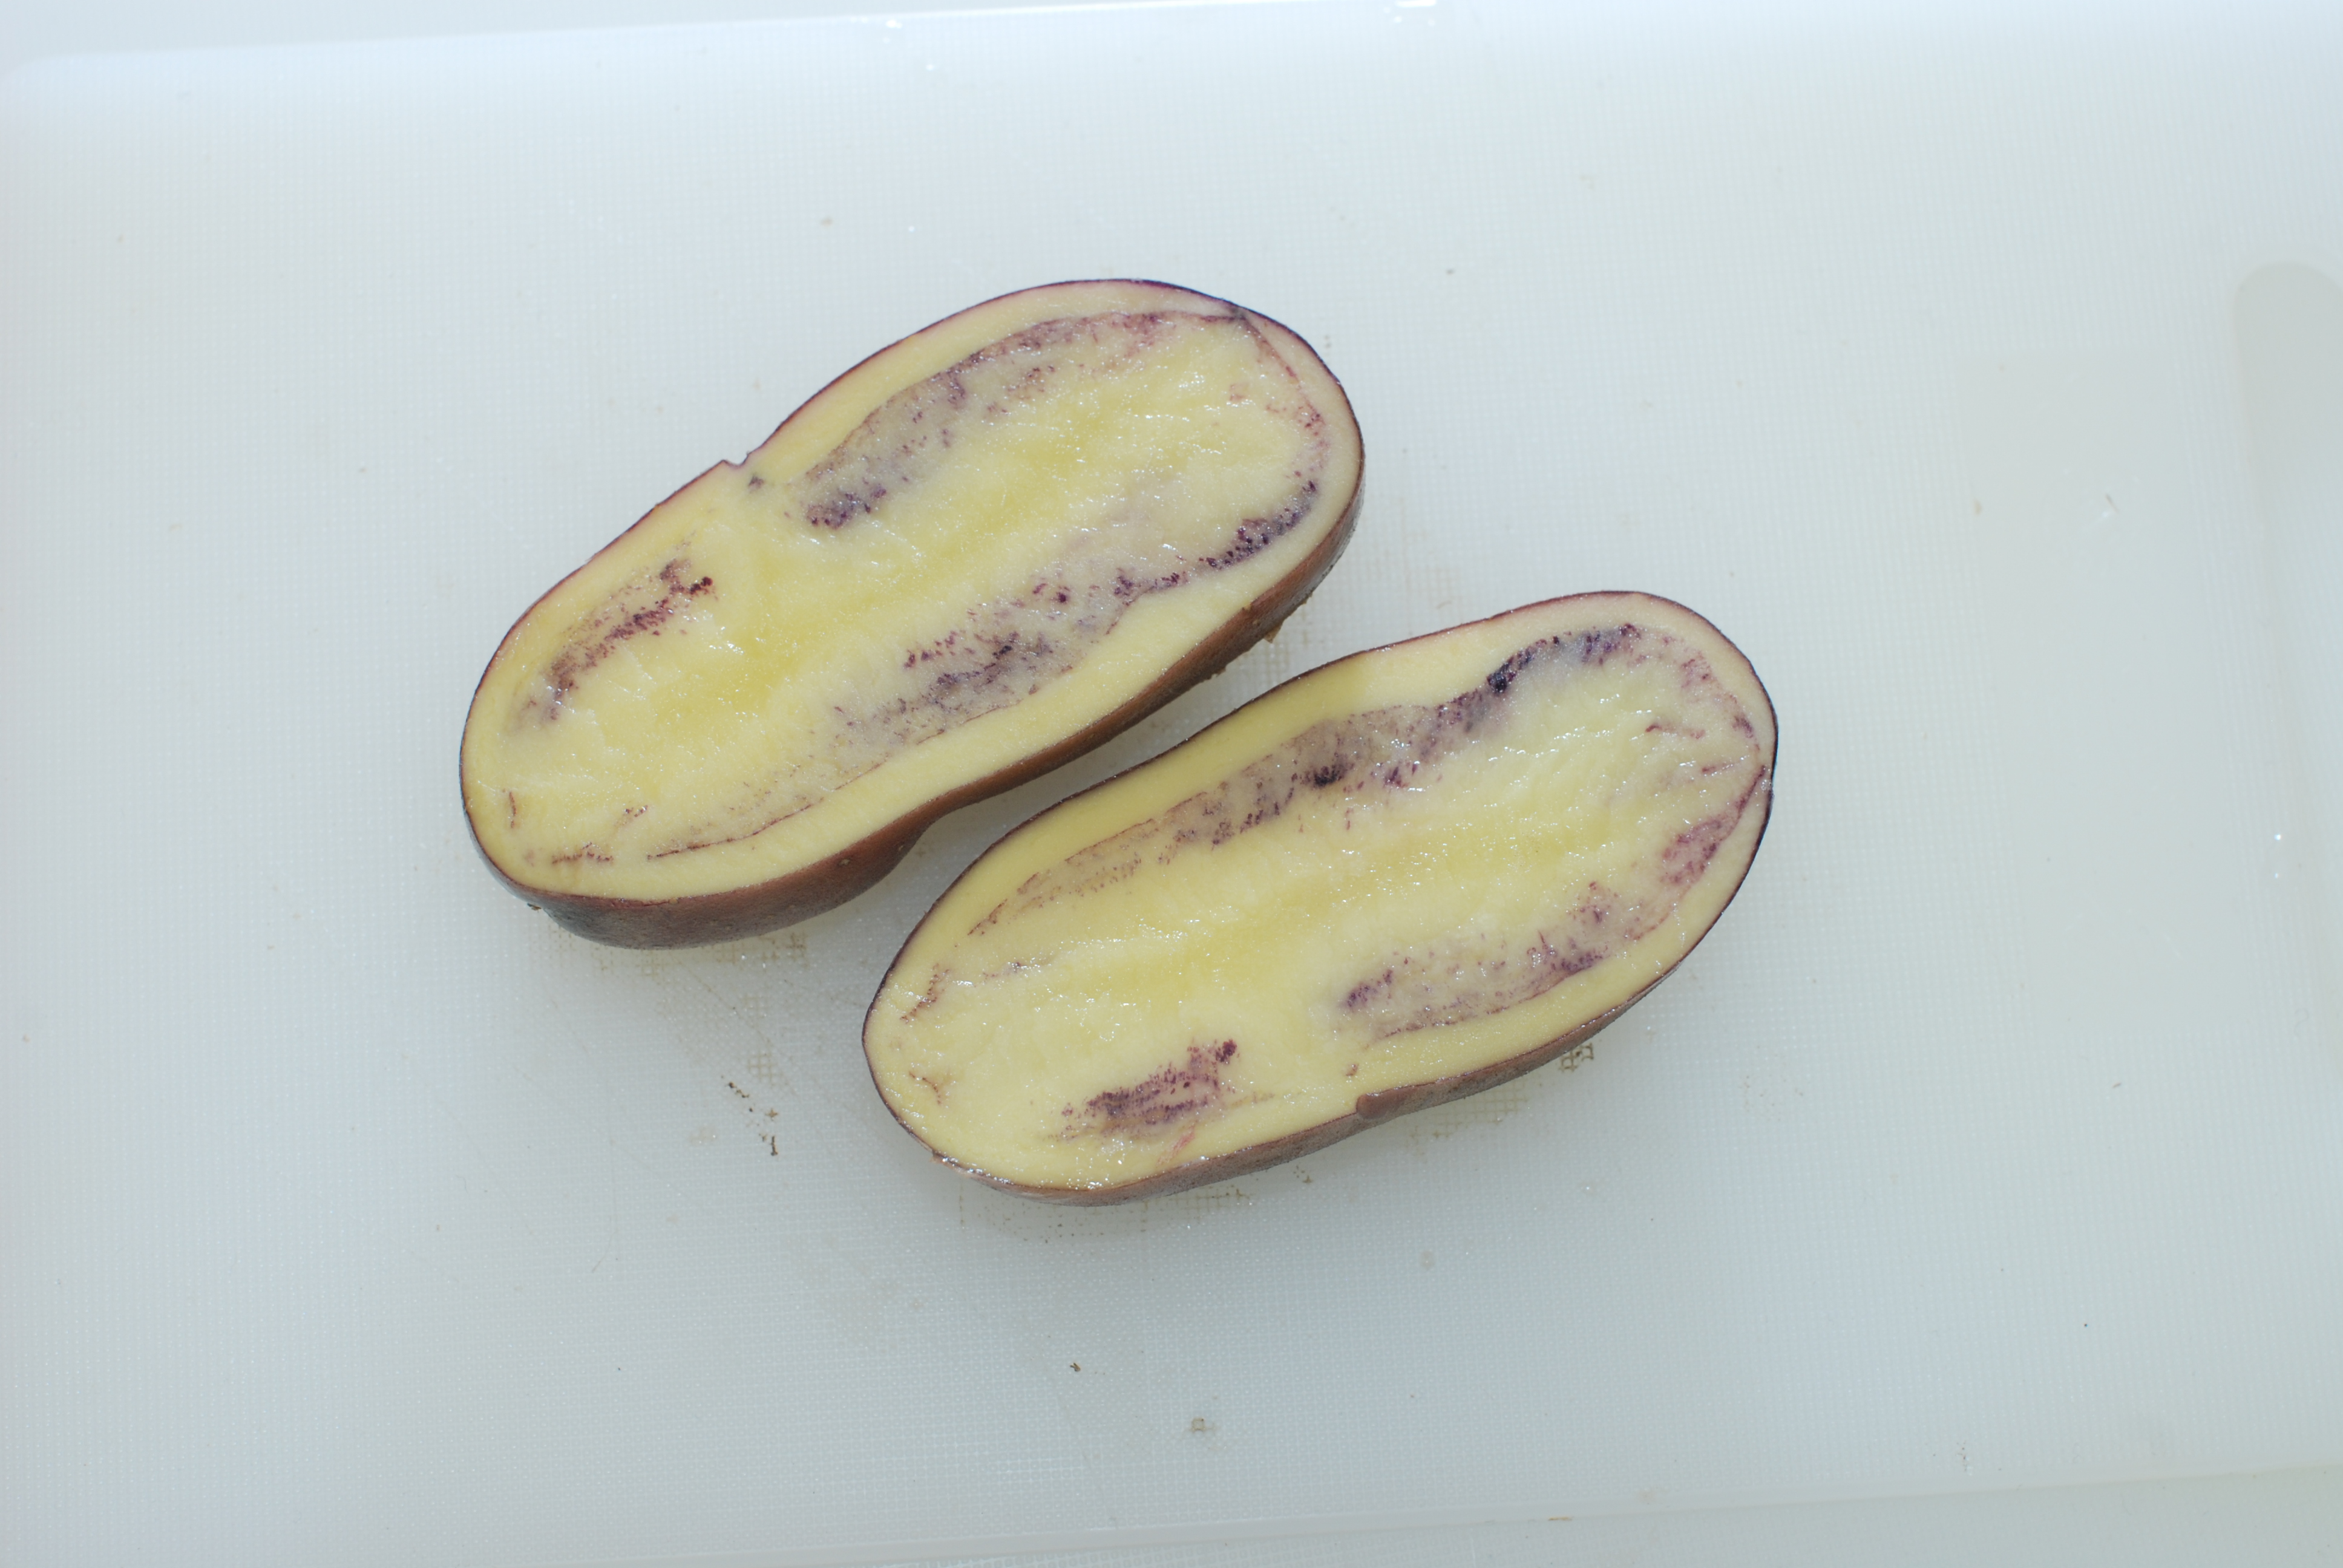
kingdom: Plantae
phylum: Tracheophyta
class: Magnoliopsida
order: Solanales
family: Solanaceae
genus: Solanum
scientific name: Solanum tuberosum
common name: Potato
